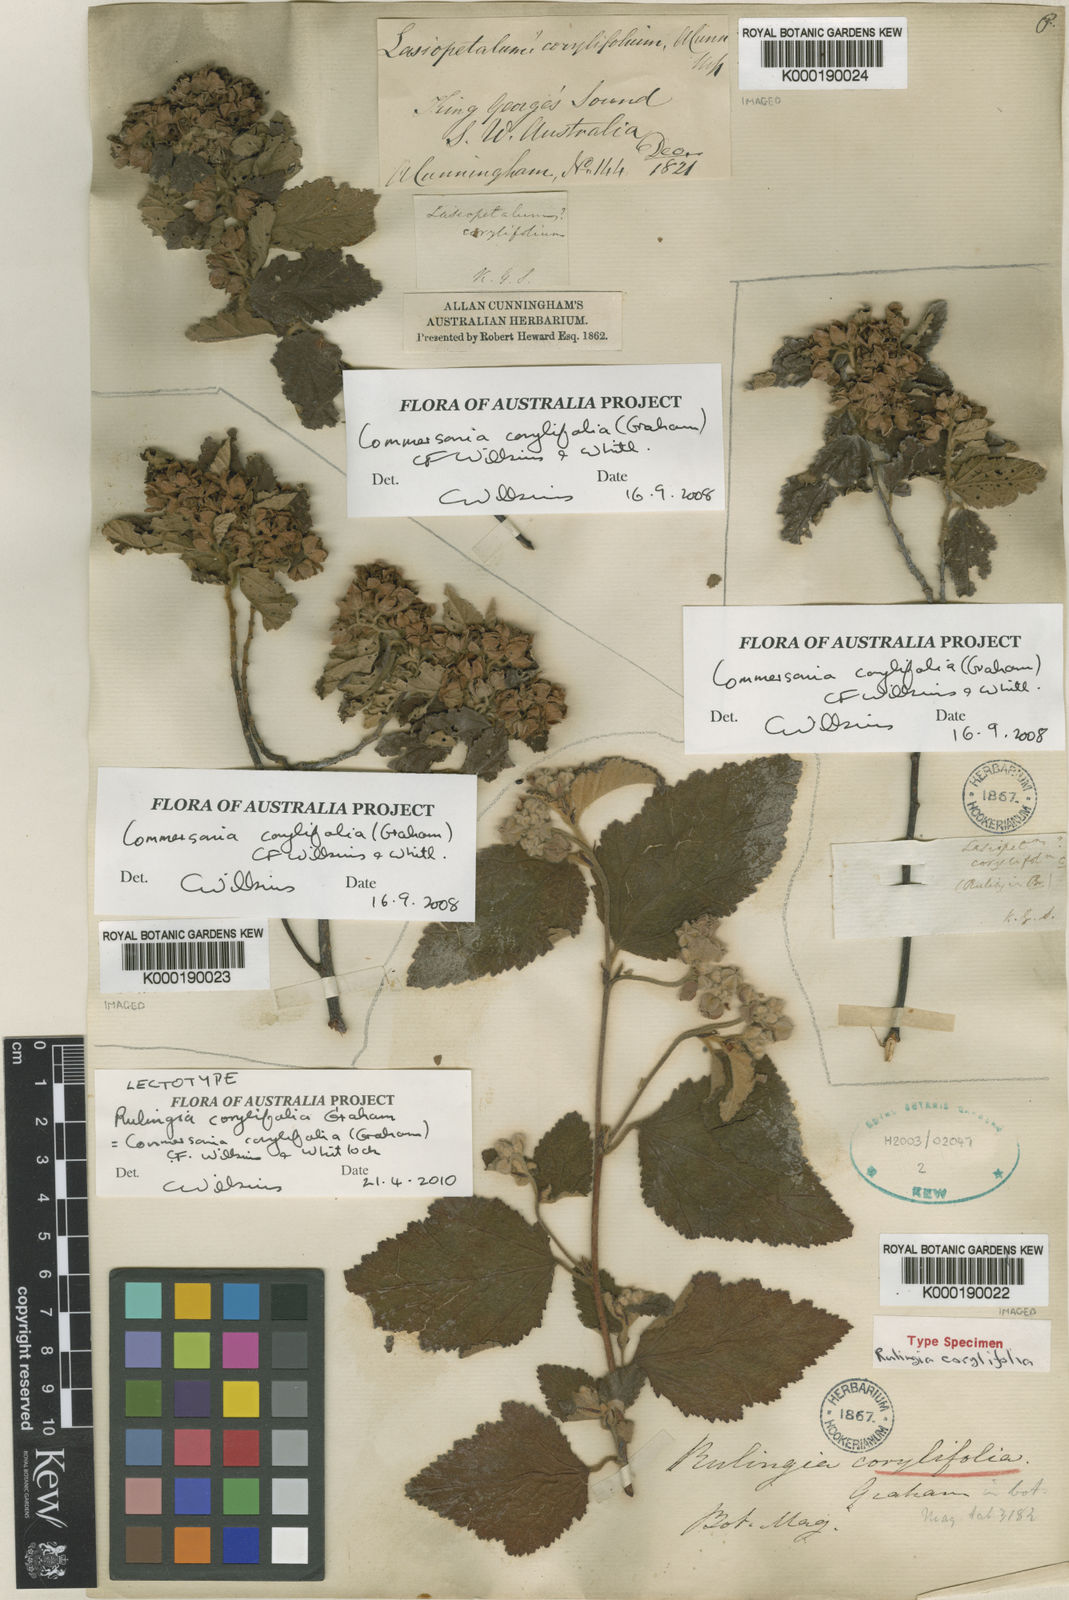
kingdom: Plantae
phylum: Tracheophyta
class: Magnoliopsida
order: Malvales
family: Malvaceae
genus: Commersonia
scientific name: Commersonia corylifolia
